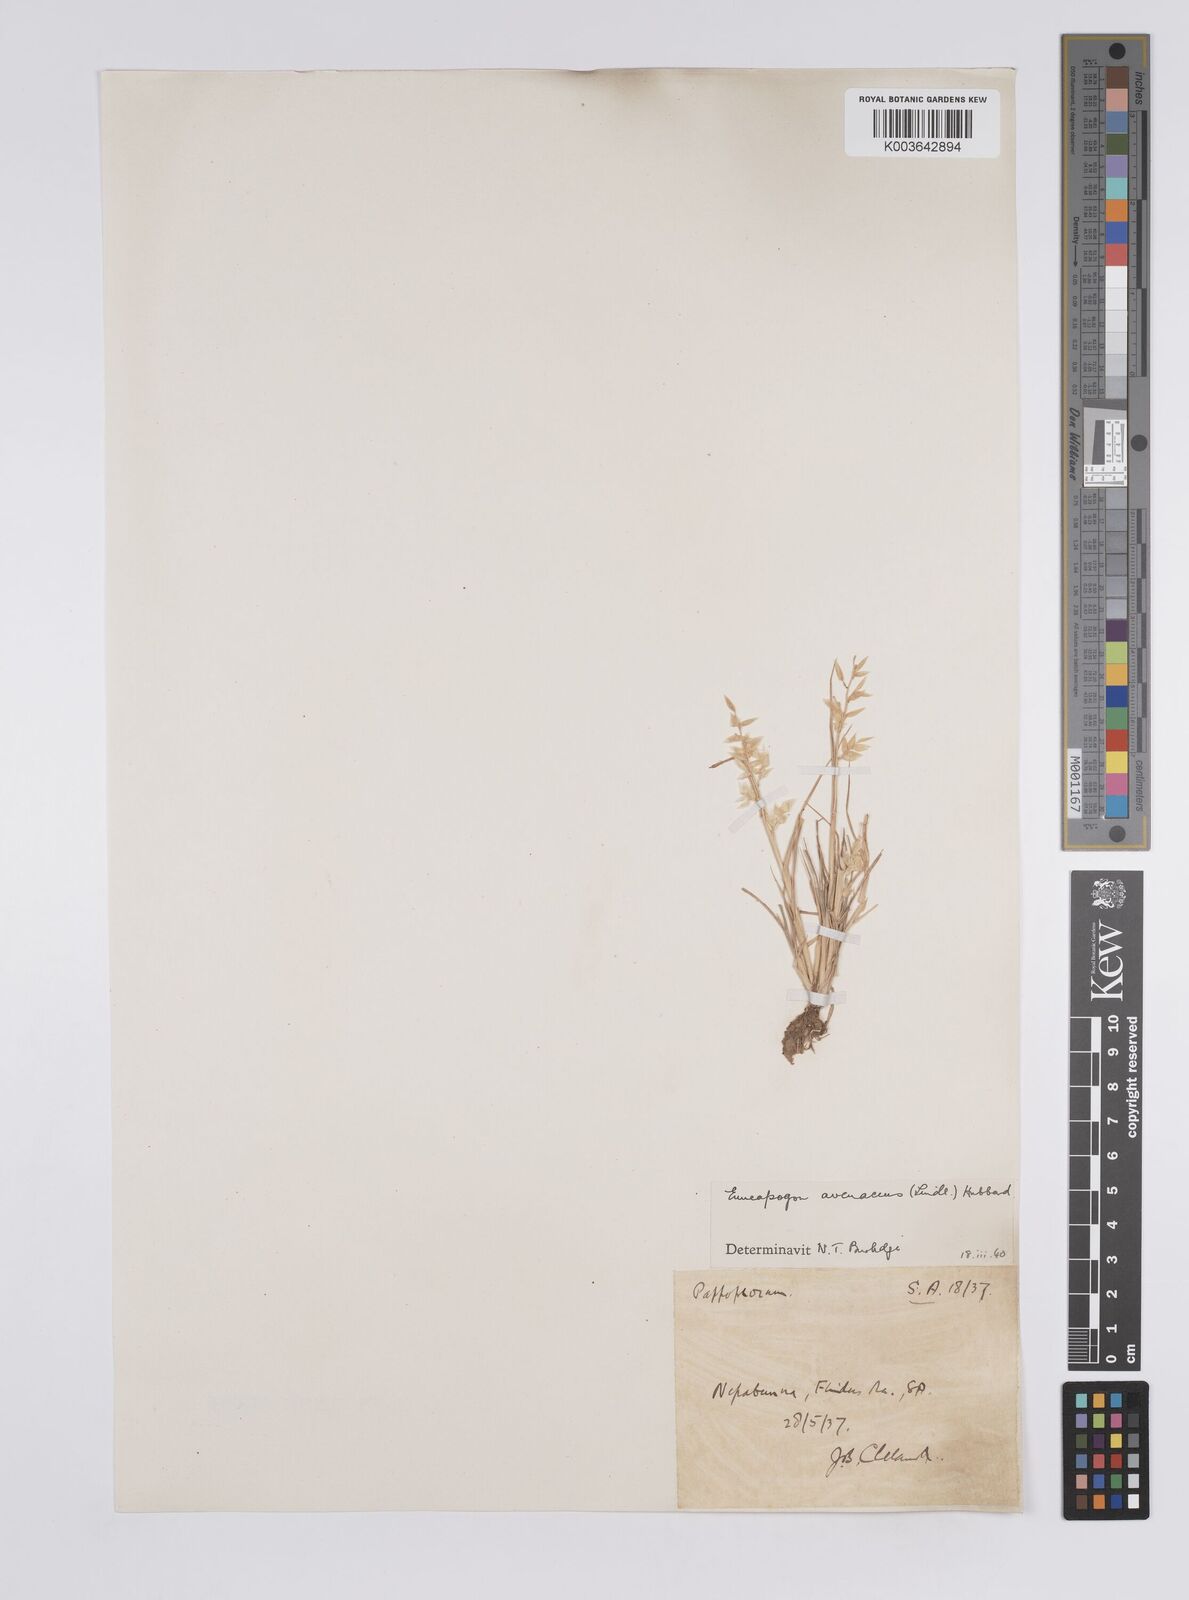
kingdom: Plantae
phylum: Tracheophyta
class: Liliopsida
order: Poales
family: Poaceae
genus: Enneapogon
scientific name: Enneapogon avenaceus
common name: Hairy oat grass
